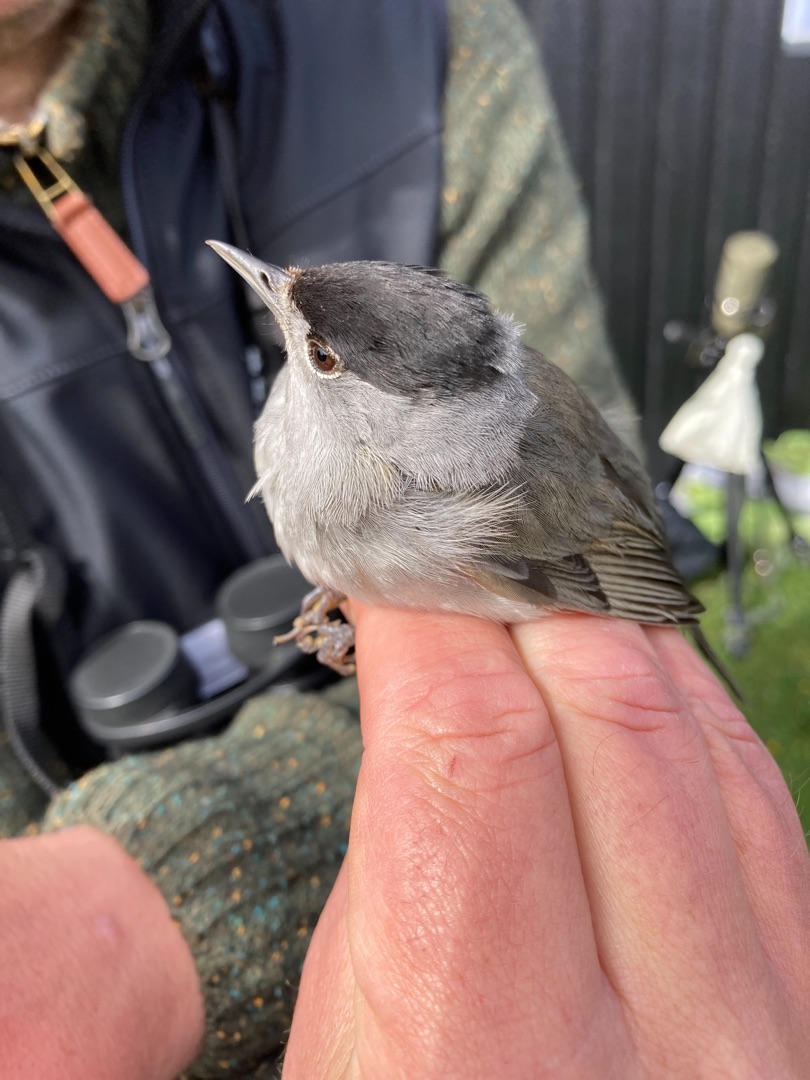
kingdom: Animalia
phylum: Chordata
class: Aves
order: Passeriformes
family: Sylviidae
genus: Sylvia
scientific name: Sylvia atricapilla
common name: Munk
